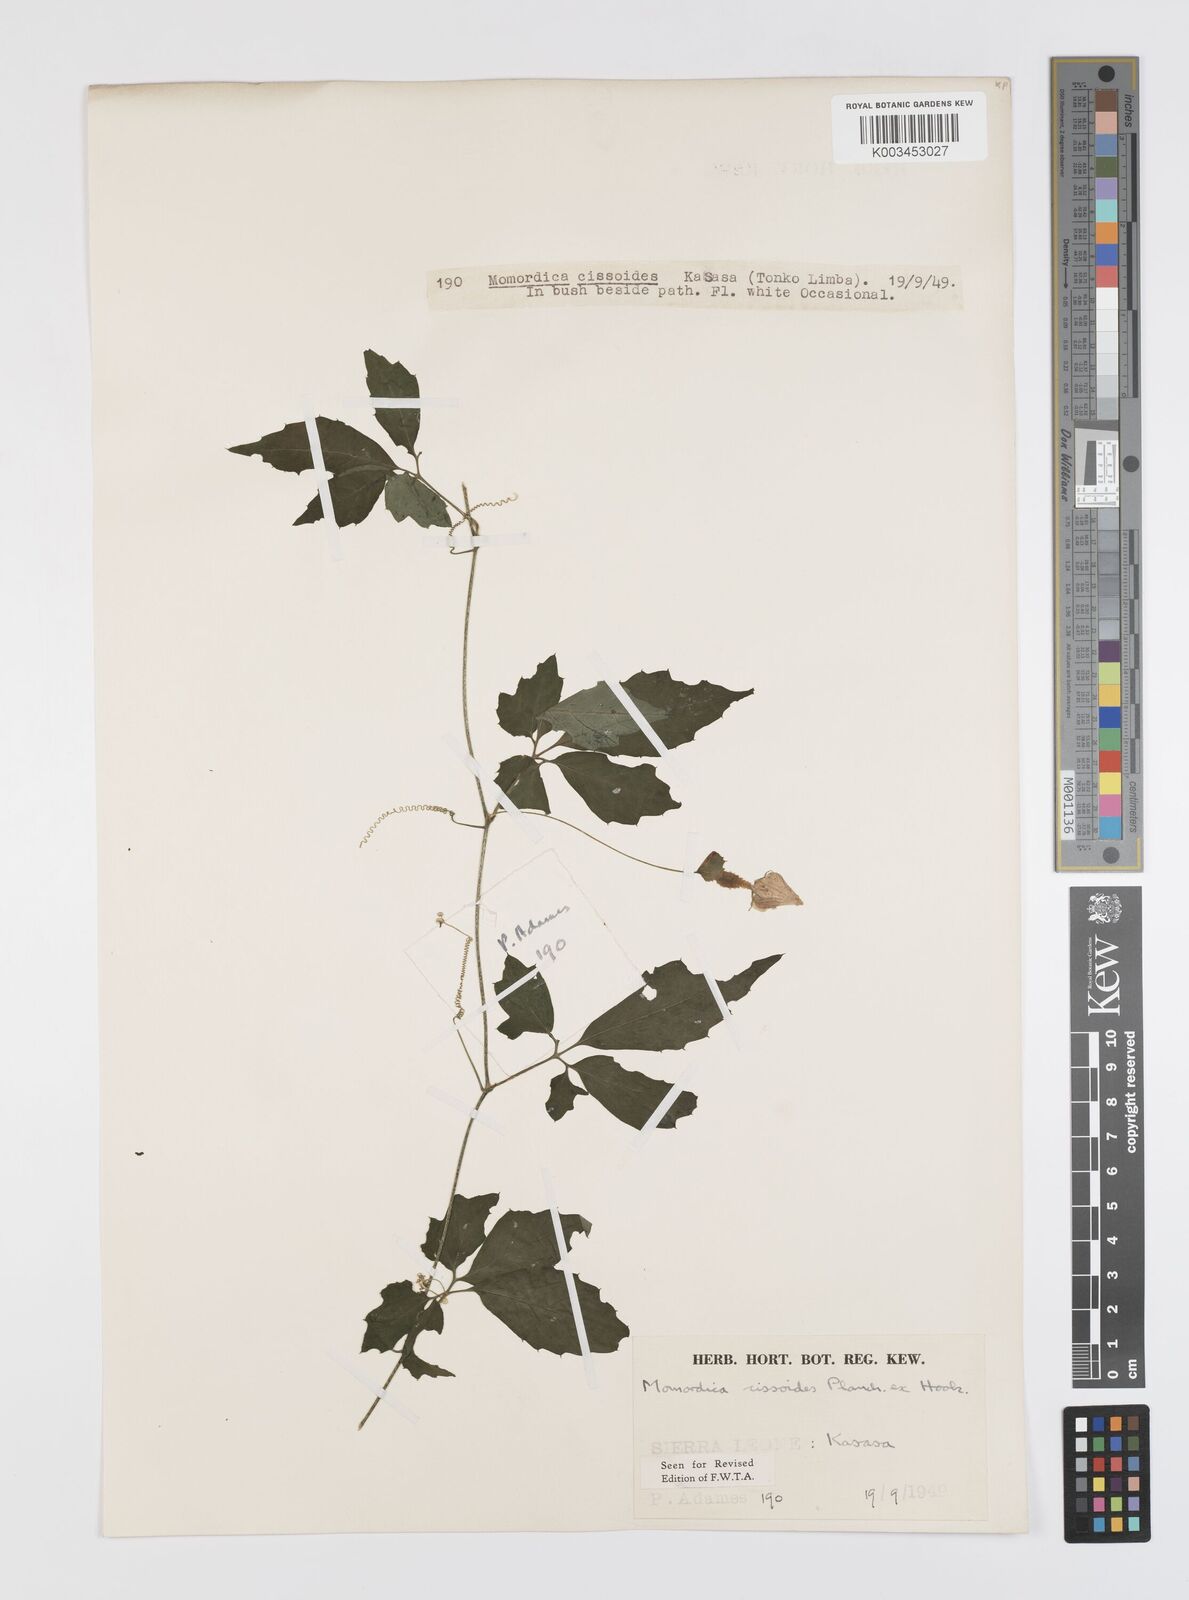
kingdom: Plantae
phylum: Tracheophyta
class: Magnoliopsida
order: Cucurbitales
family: Cucurbitaceae
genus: Momordica
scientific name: Momordica cissoides
